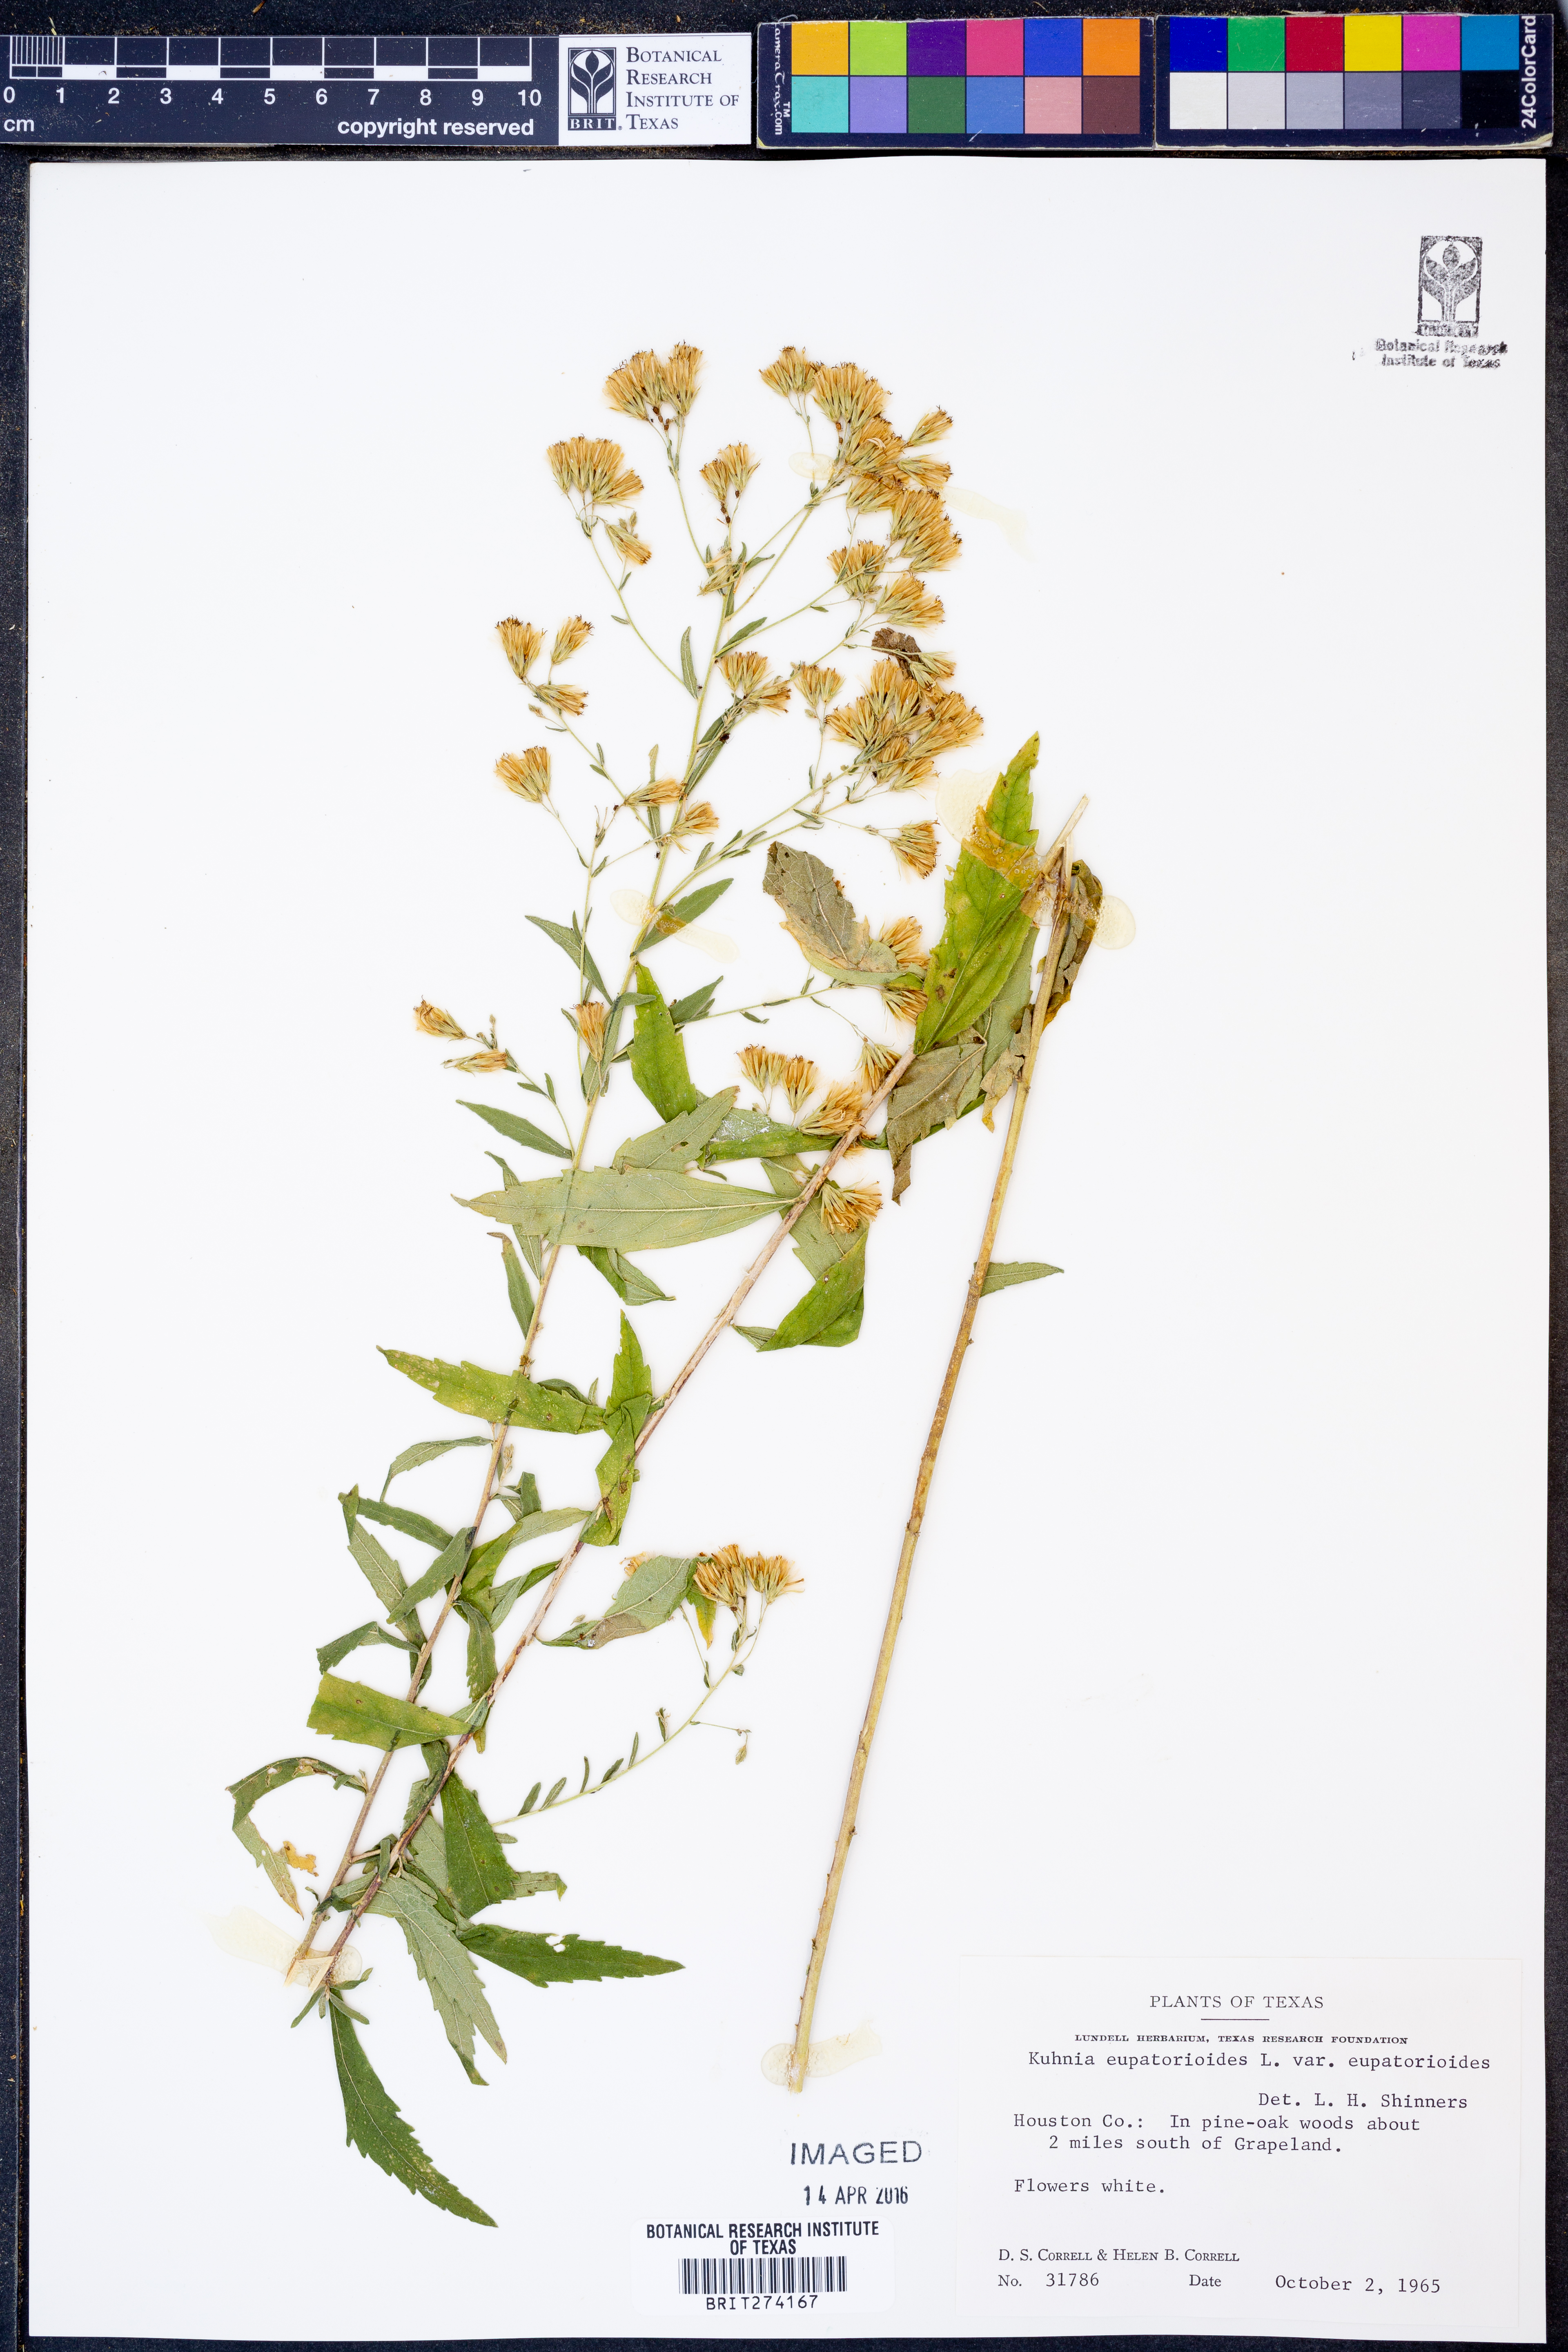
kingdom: Plantae
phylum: Tracheophyta
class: Magnoliopsida
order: Asterales
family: Asteraceae
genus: Brickellia
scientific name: Brickellia eupatorioides
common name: False boneset
